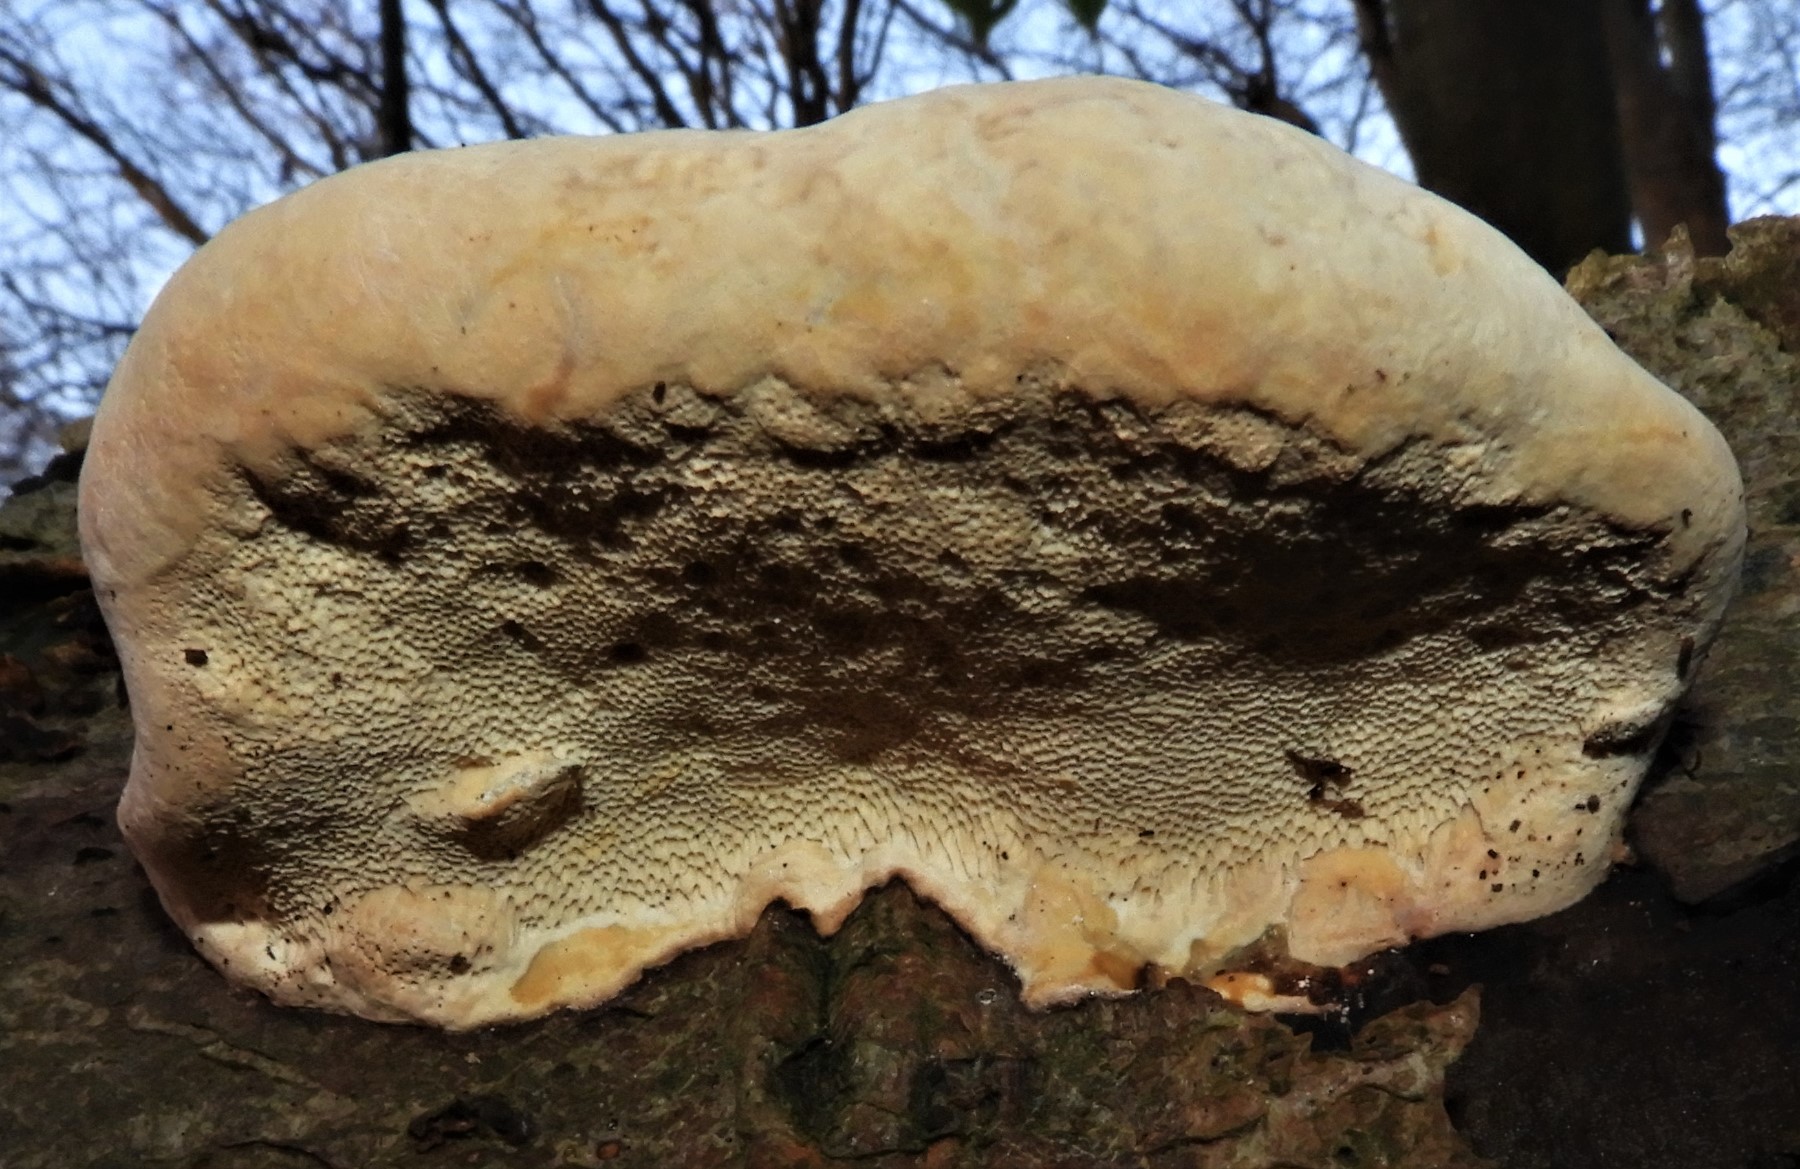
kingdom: Fungi
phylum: Basidiomycota
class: Agaricomycetes
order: Polyporales
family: Fomitopsidaceae
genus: Fomitopsis
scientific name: Fomitopsis pinicola
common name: randbæltet hovporesvamp
